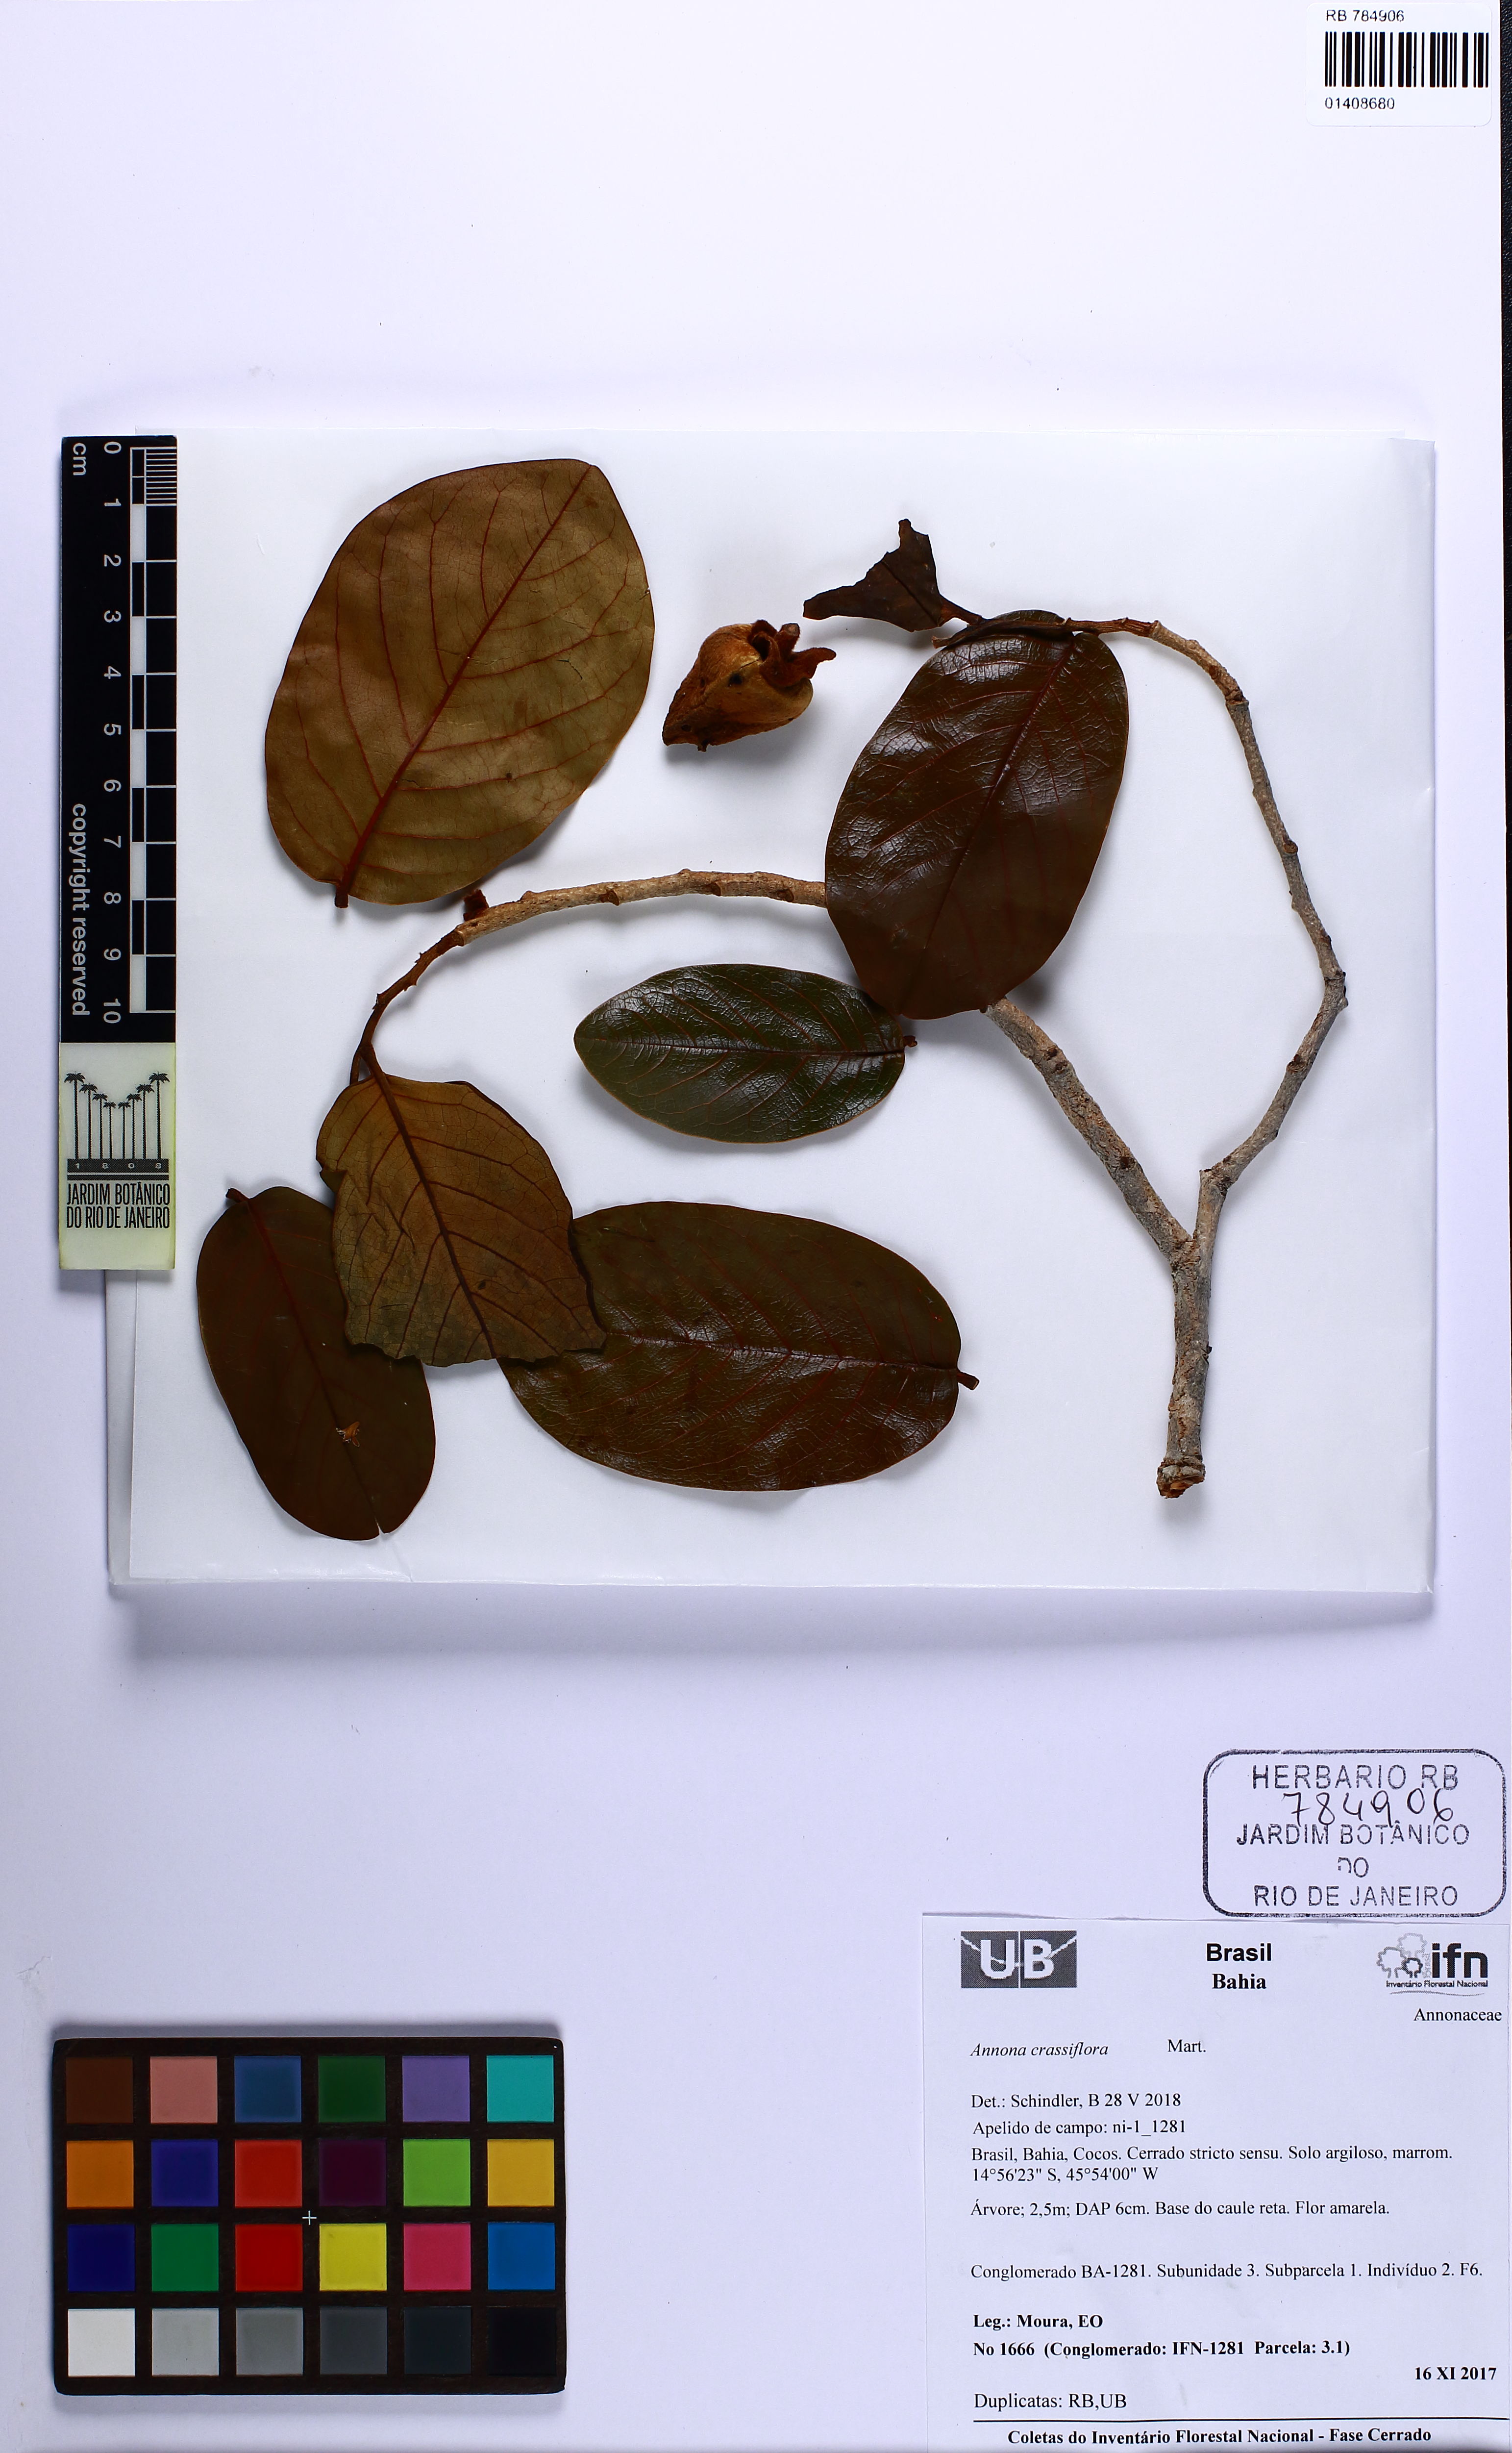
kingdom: Plantae
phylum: Tracheophyta
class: Magnoliopsida
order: Magnoliales
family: Annonaceae
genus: Annona
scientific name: Annona crassiflora
